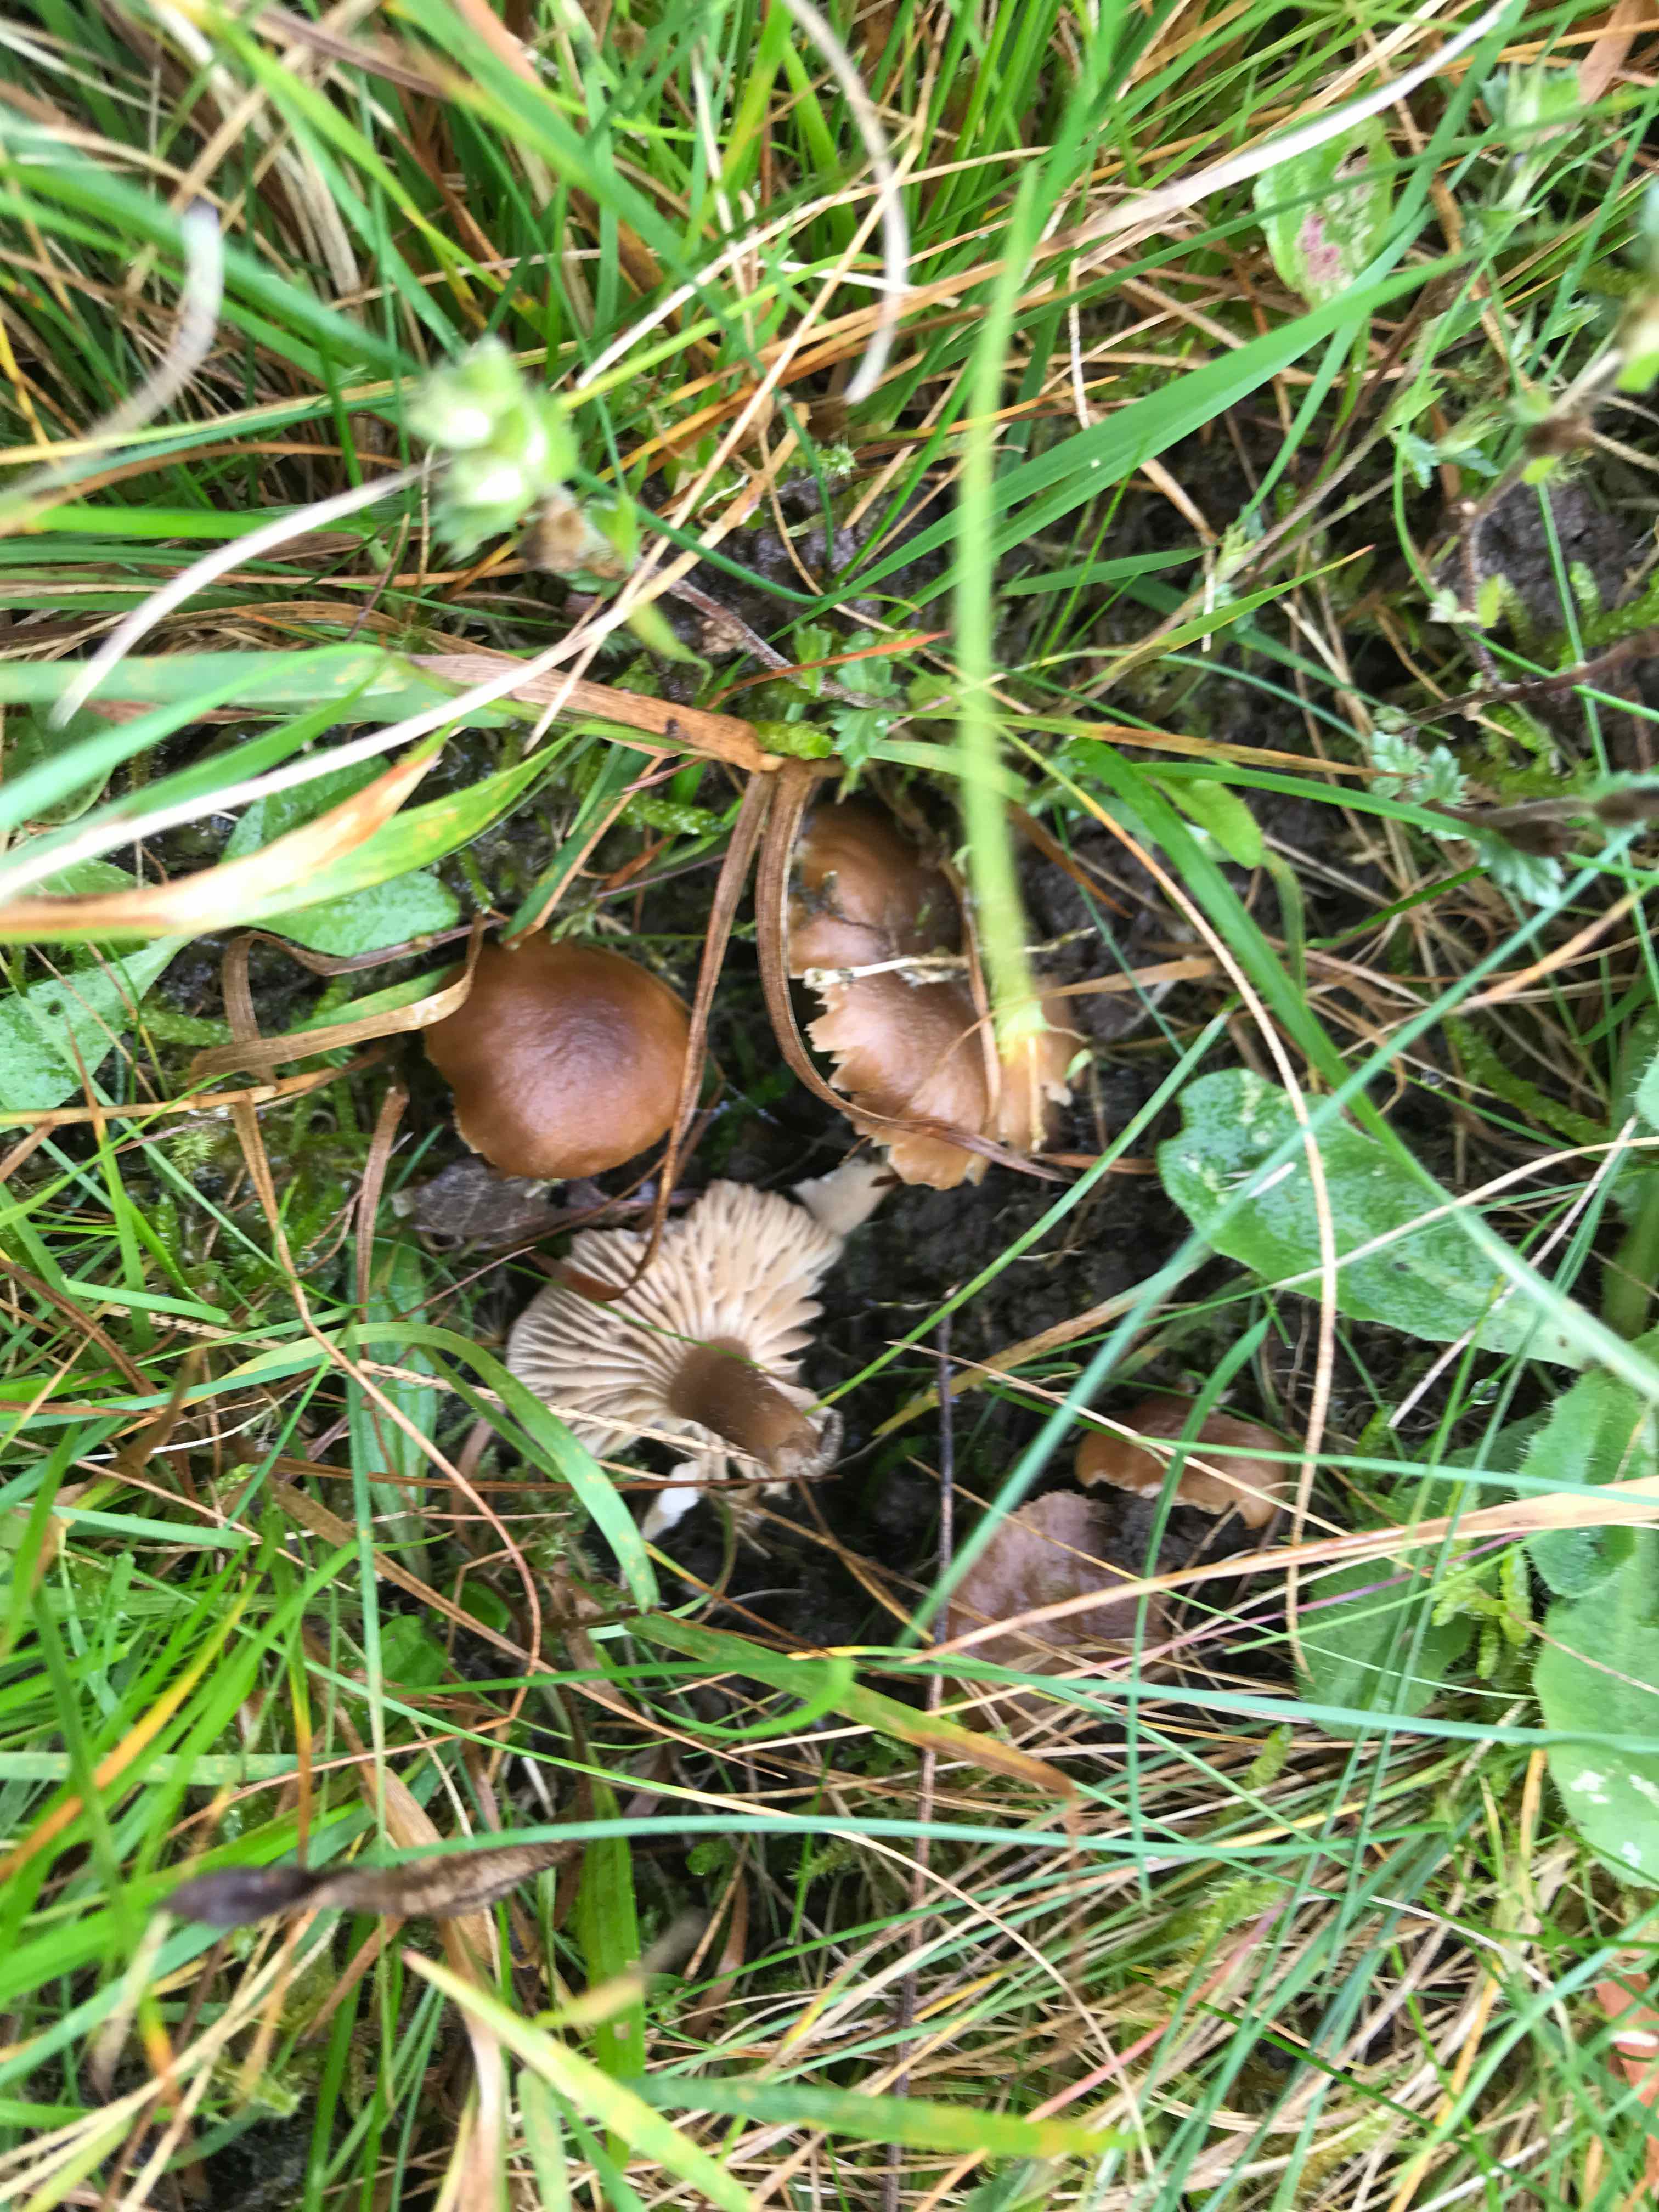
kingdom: Fungi
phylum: Basidiomycota
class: Agaricomycetes
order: Agaricales
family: Clavariaceae
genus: Camarophyllopsis
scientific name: Camarophyllopsis schulzeri
